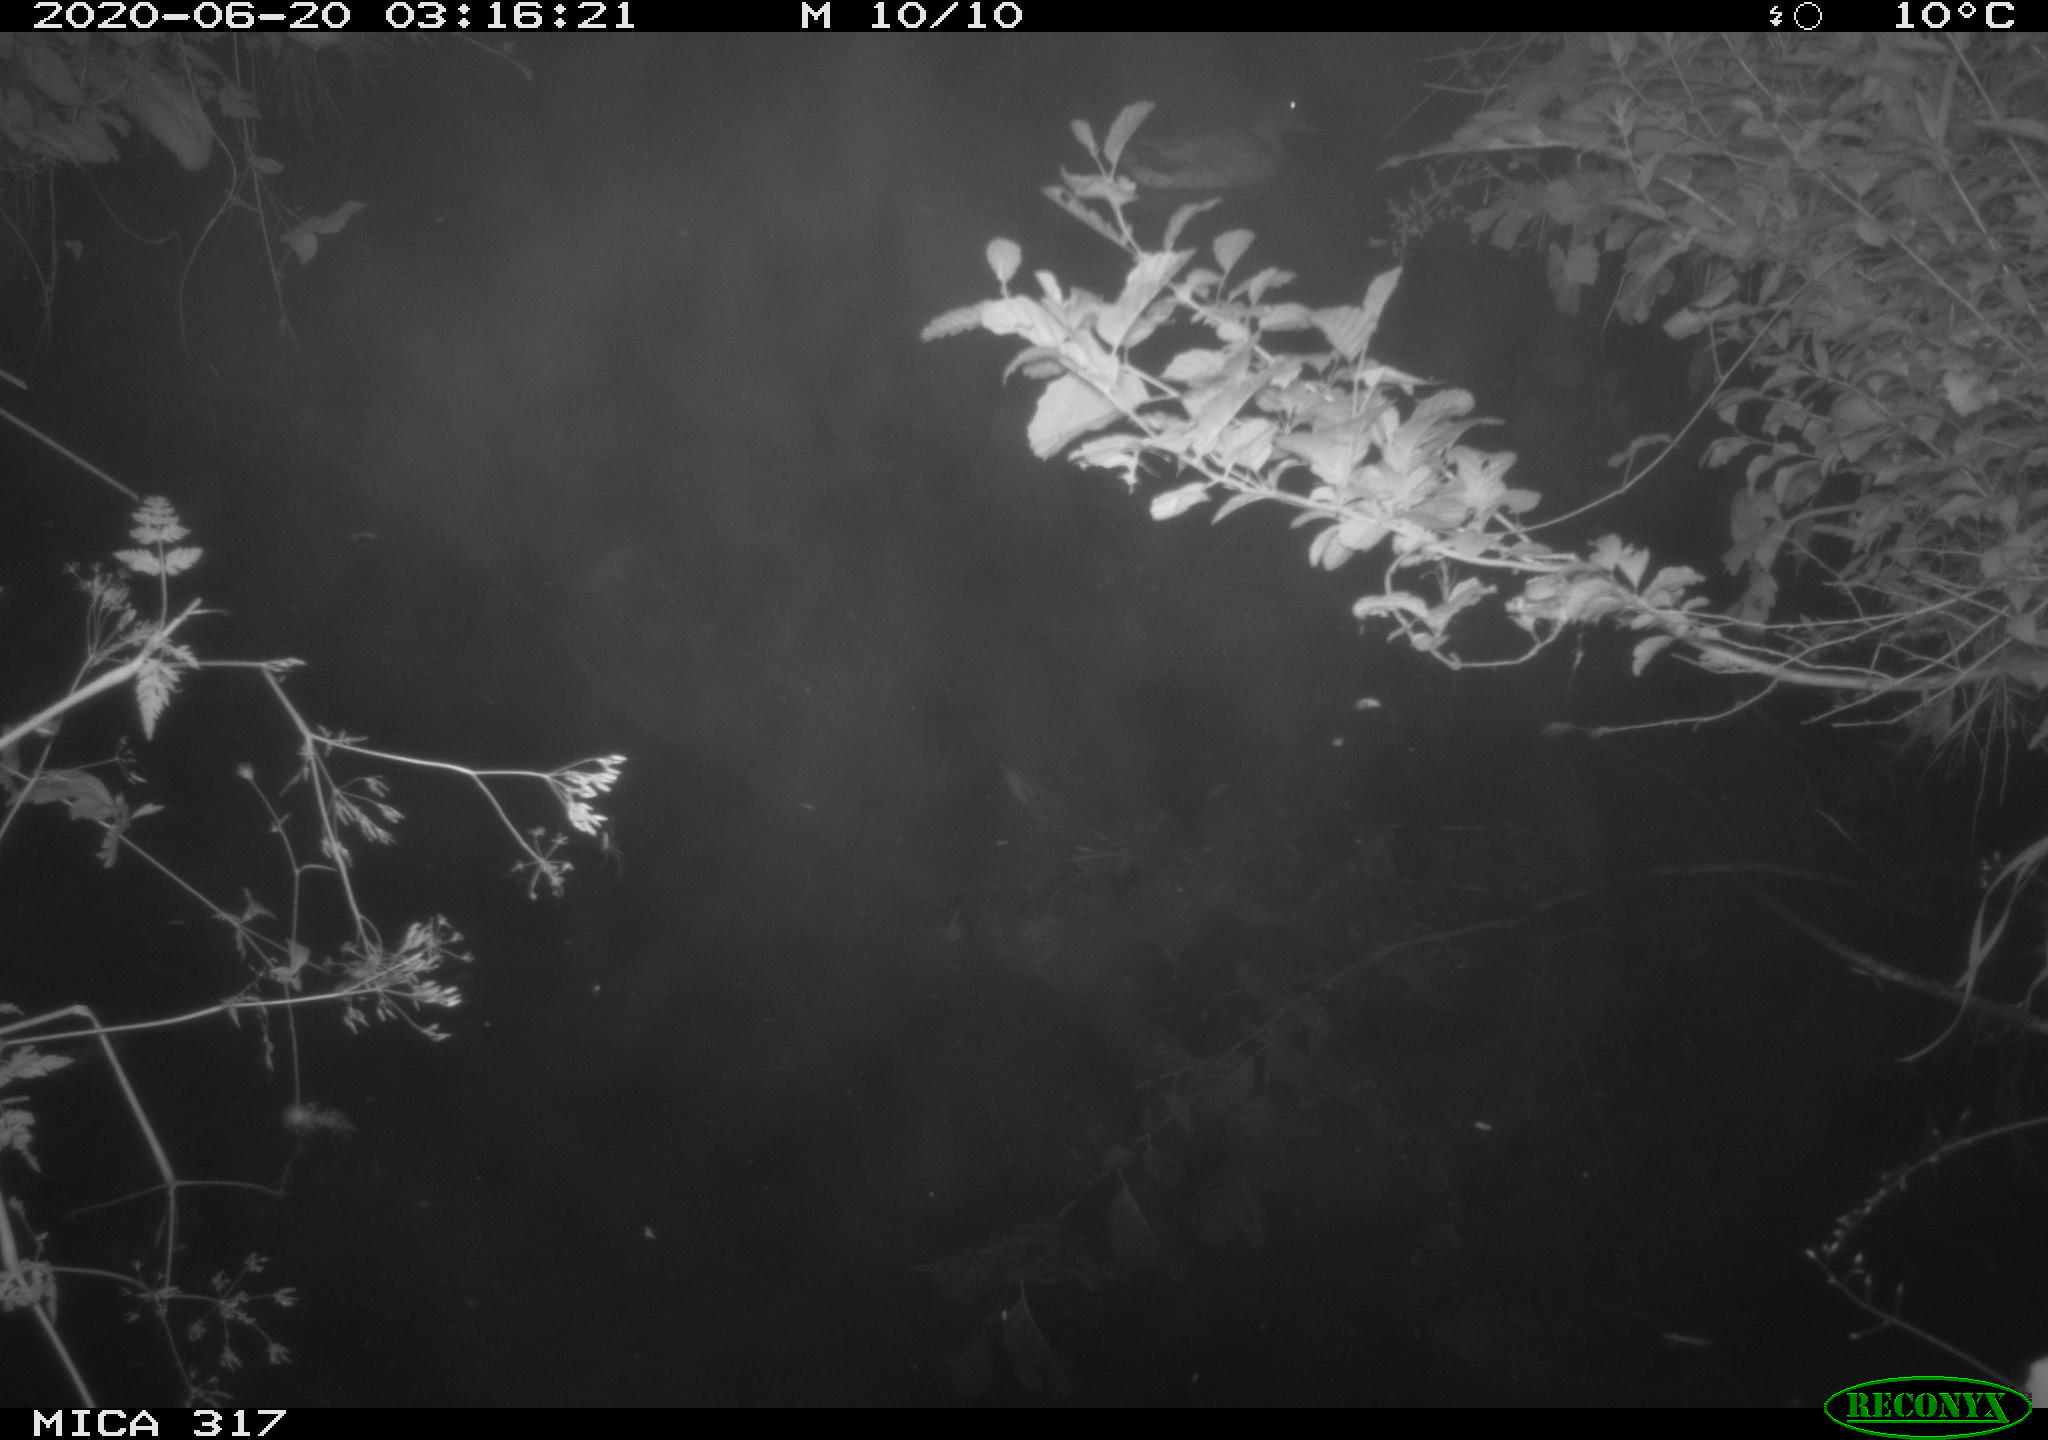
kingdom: Animalia
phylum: Chordata
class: Aves
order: Anseriformes
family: Anatidae
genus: Anas
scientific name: Anas platyrhynchos
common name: Mallard
